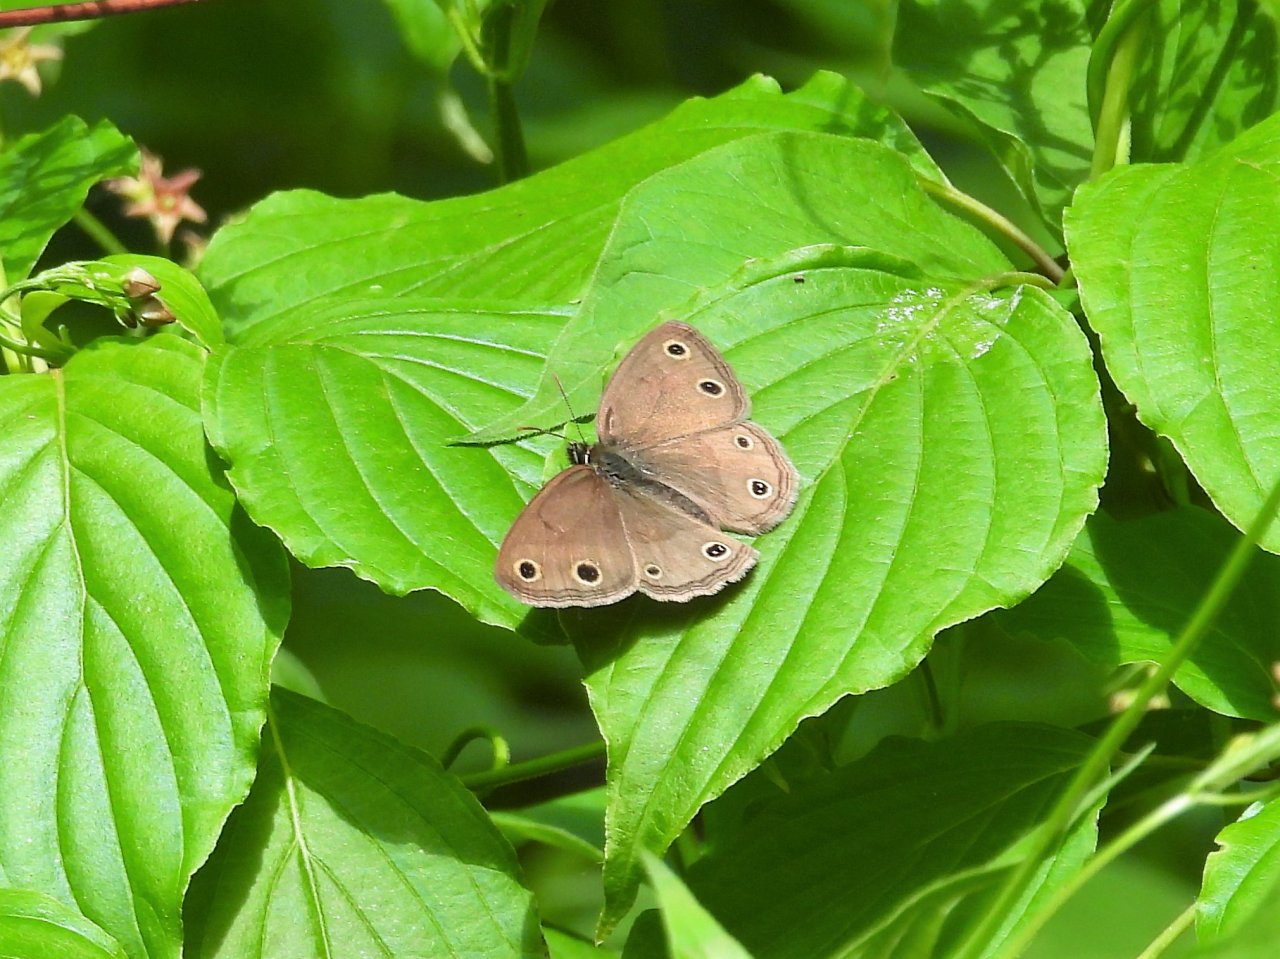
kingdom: Animalia
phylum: Arthropoda
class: Insecta
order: Lepidoptera
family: Nymphalidae
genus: Euptychia
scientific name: Euptychia cymela
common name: Little Wood Satyr
